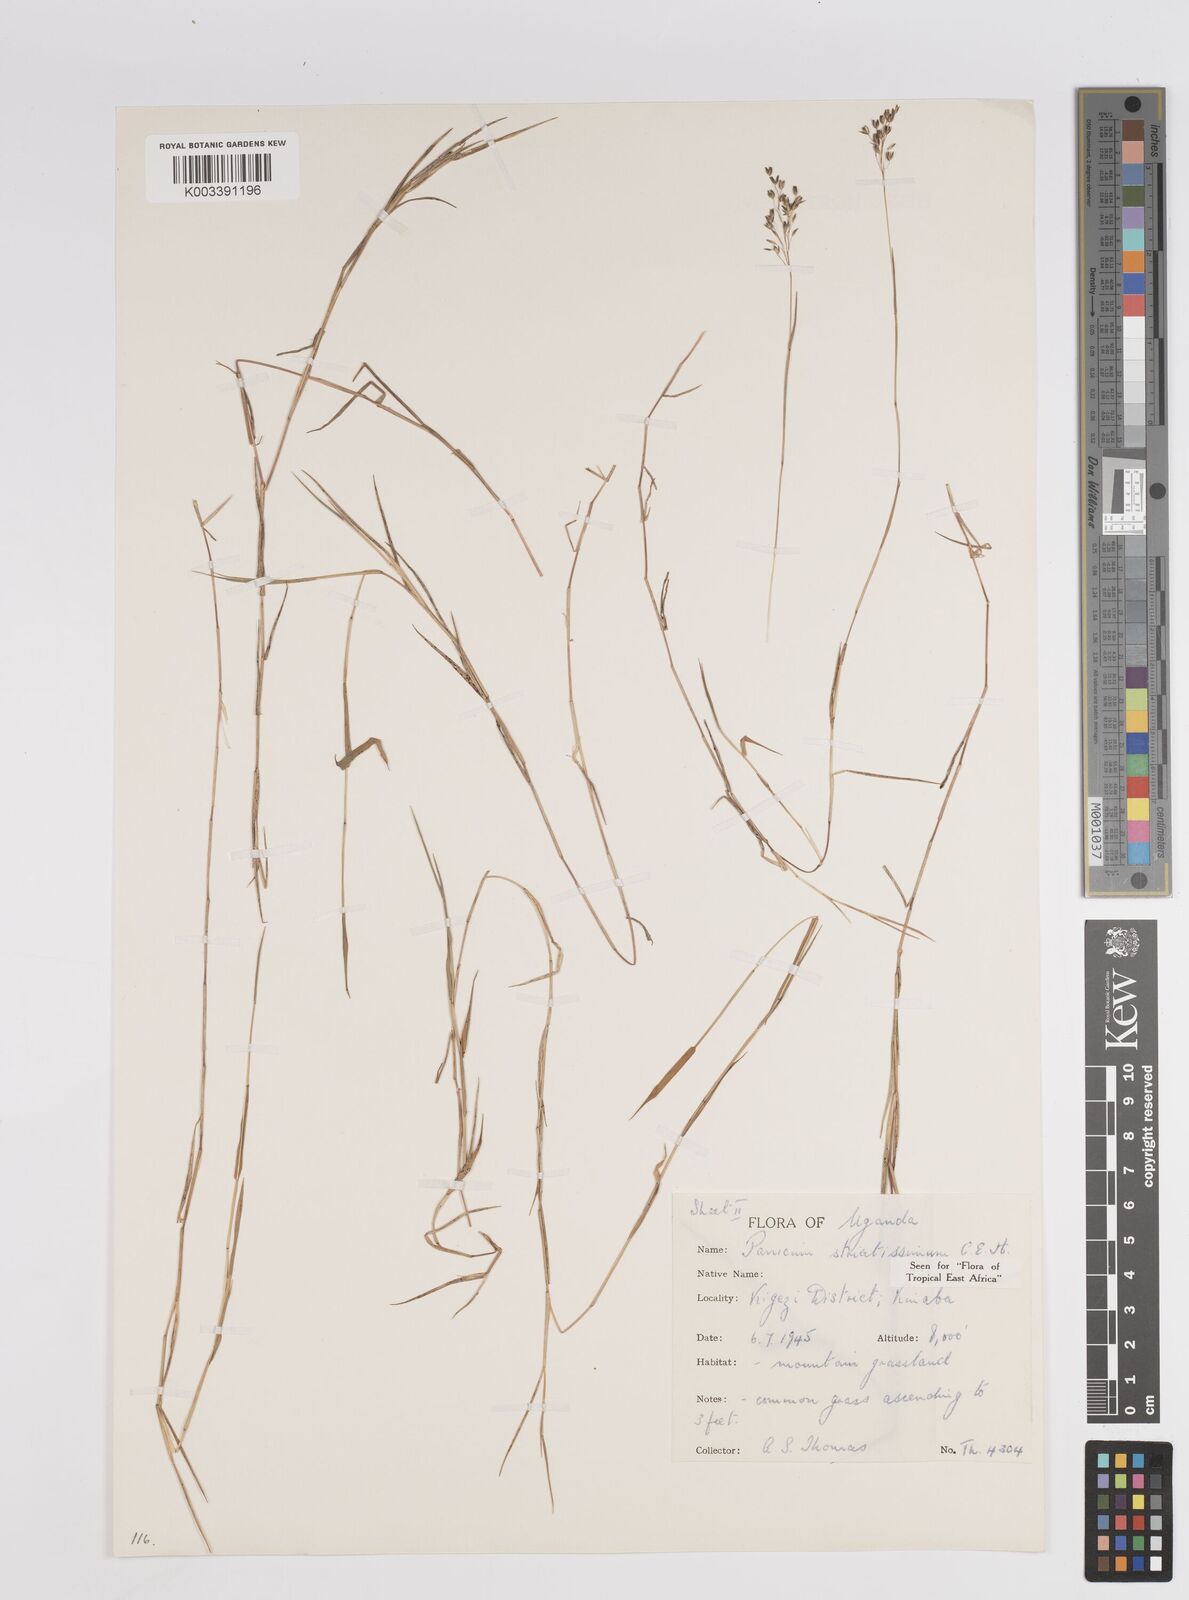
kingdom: Plantae
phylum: Tracheophyta
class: Liliopsida
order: Poales
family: Poaceae
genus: Panicum
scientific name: Panicum eickii
